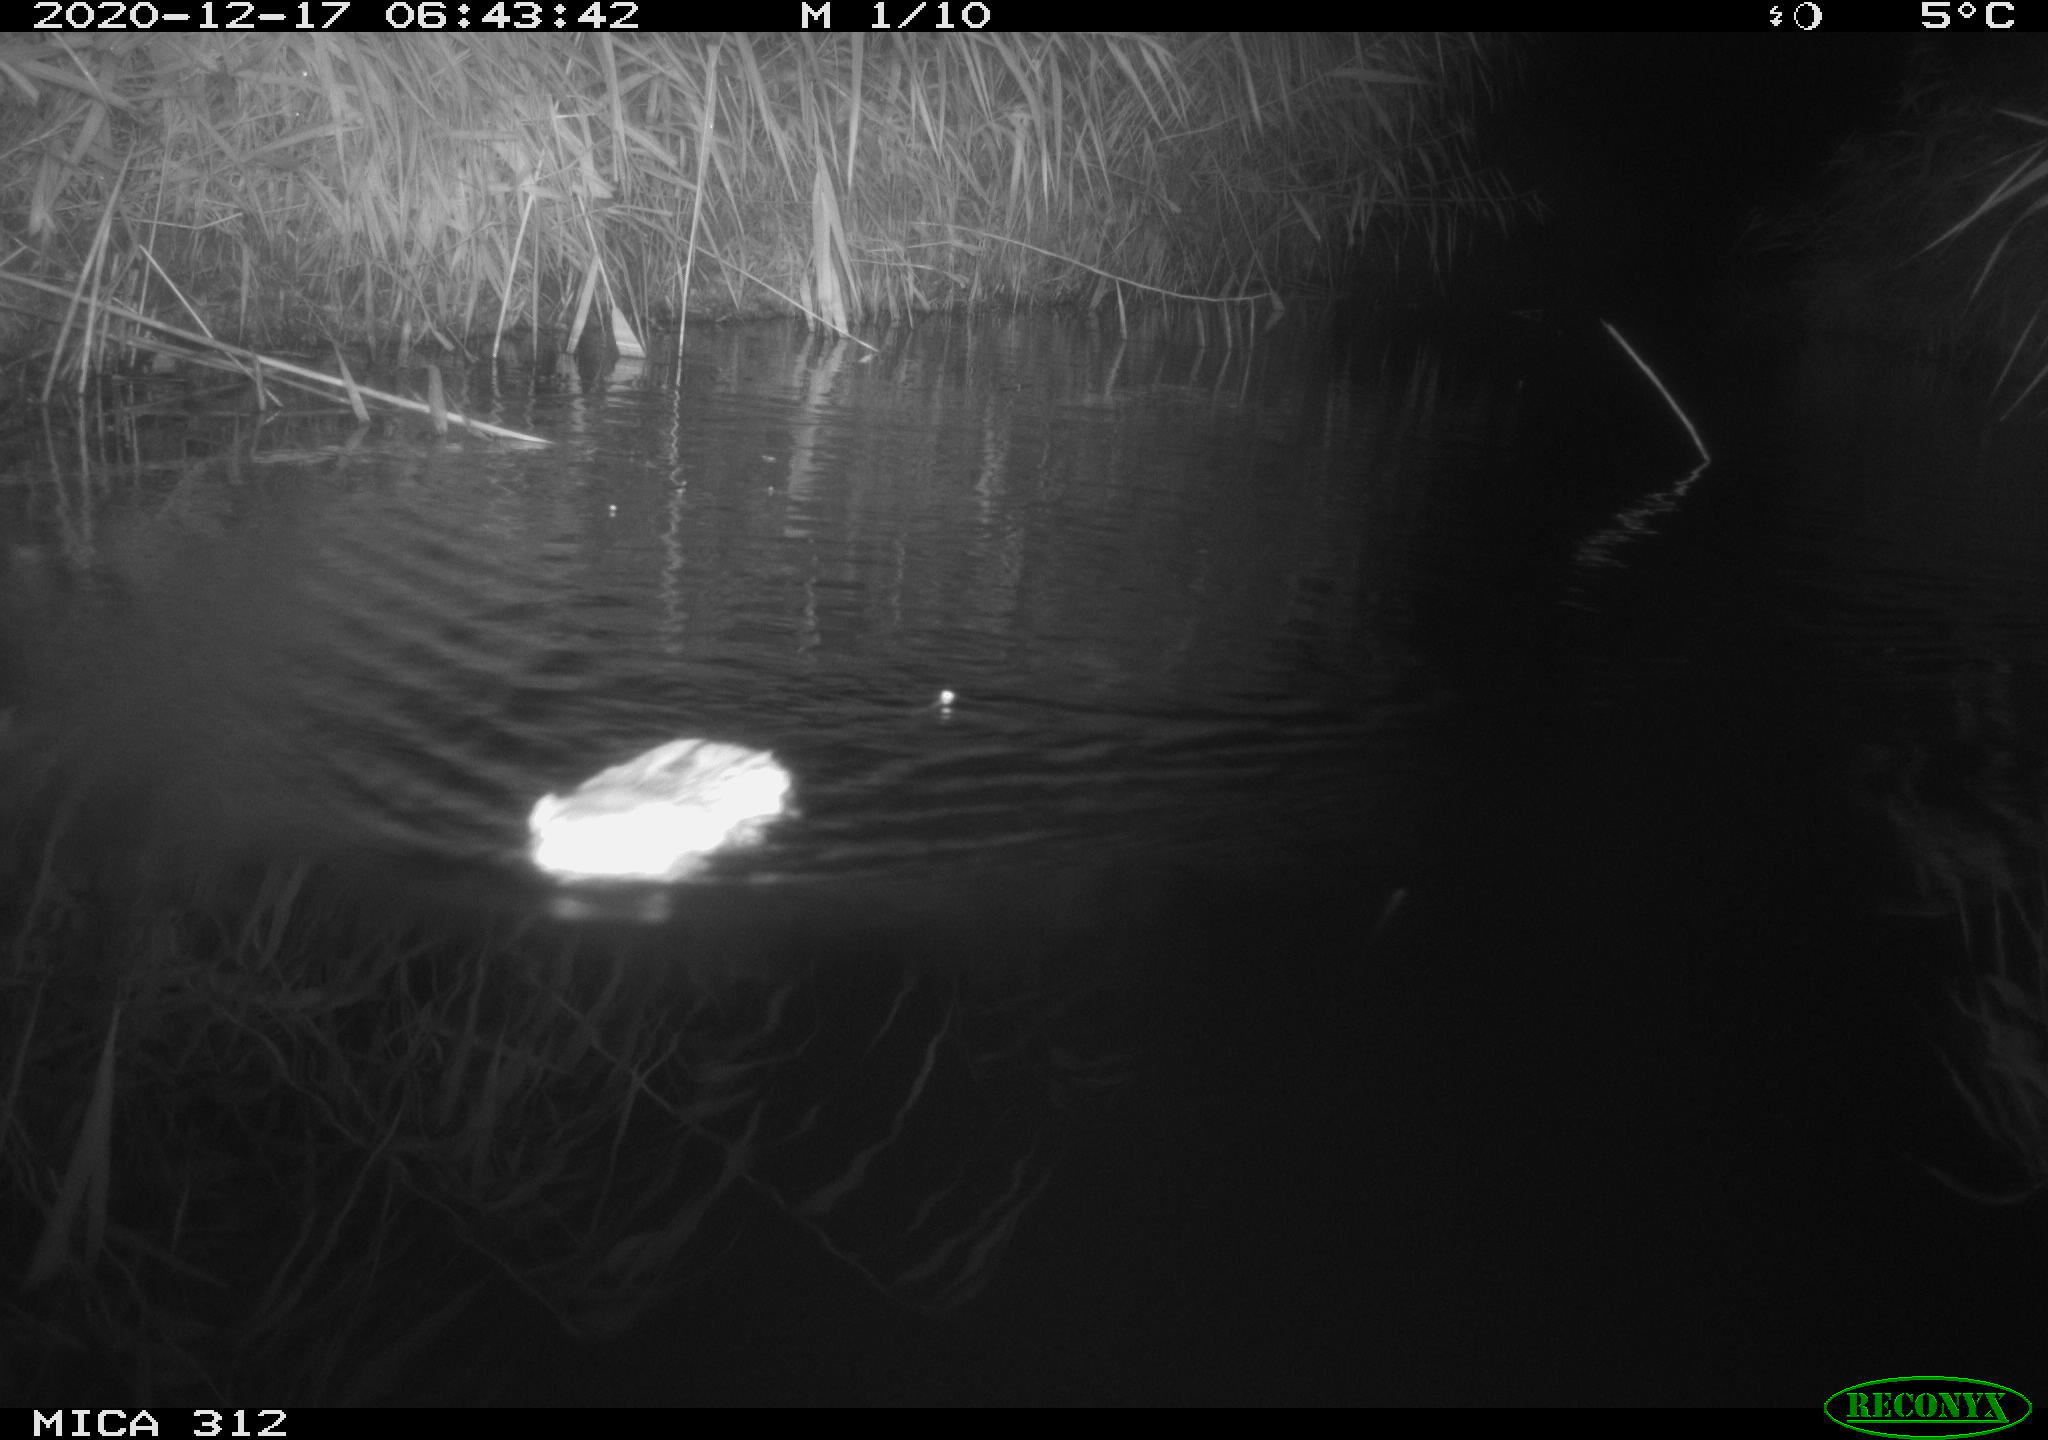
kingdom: Animalia
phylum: Chordata
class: Mammalia
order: Rodentia
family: Muridae
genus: Rattus
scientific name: Rattus norvegicus
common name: Brown rat
